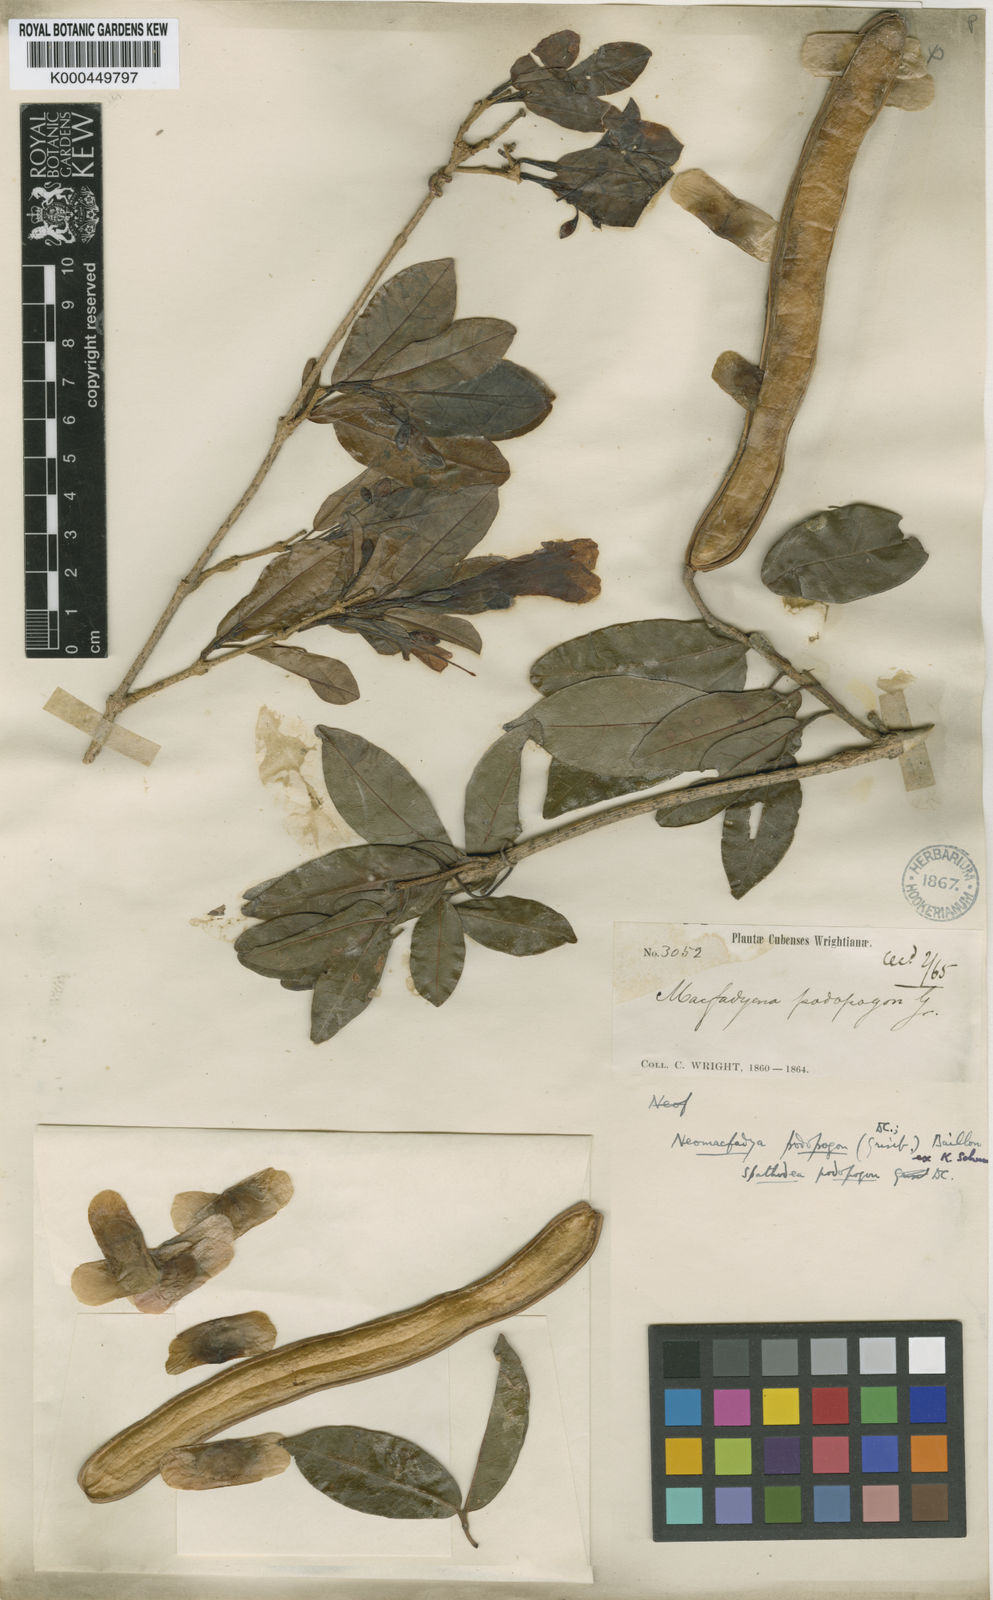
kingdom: Plantae
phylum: Tracheophyta
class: Magnoliopsida
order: Lamiales
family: Bignoniaceae
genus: Fridericia
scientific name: Fridericia podopogon
